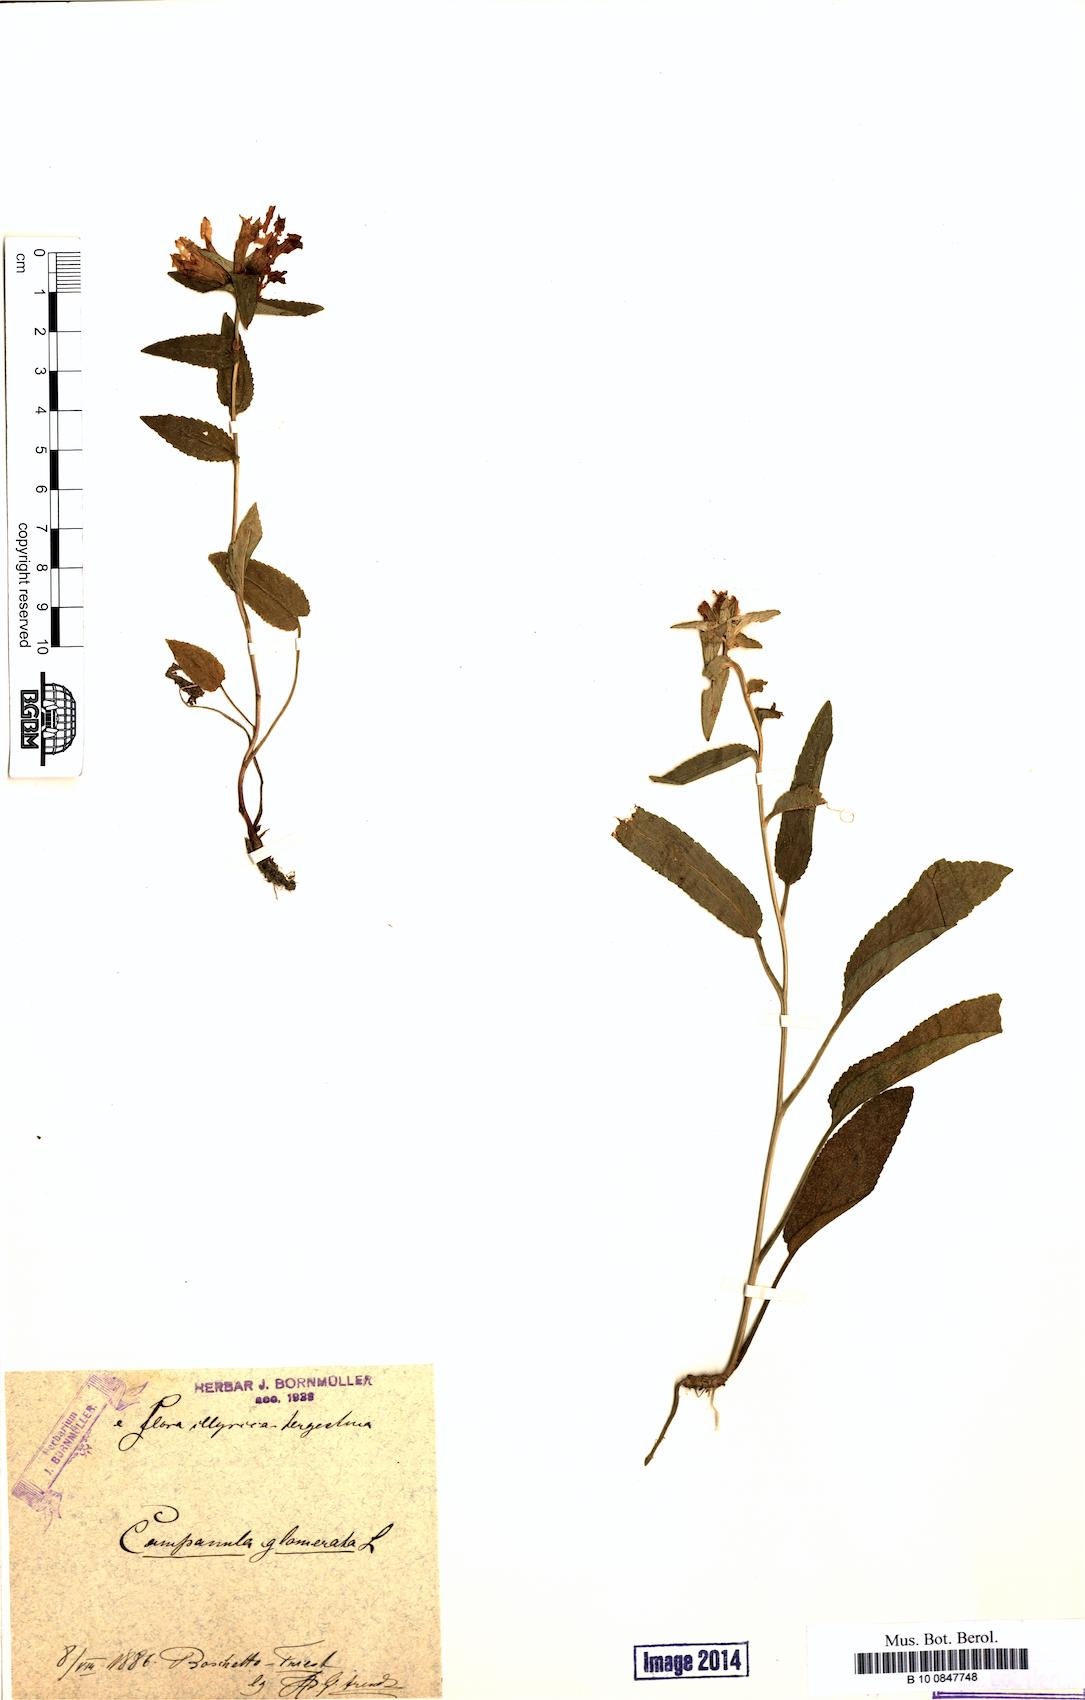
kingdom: Plantae
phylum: Tracheophyta
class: Magnoliopsida
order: Asterales
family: Campanulaceae
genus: Campanula
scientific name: Campanula glomerata
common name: Clustered bellflower
